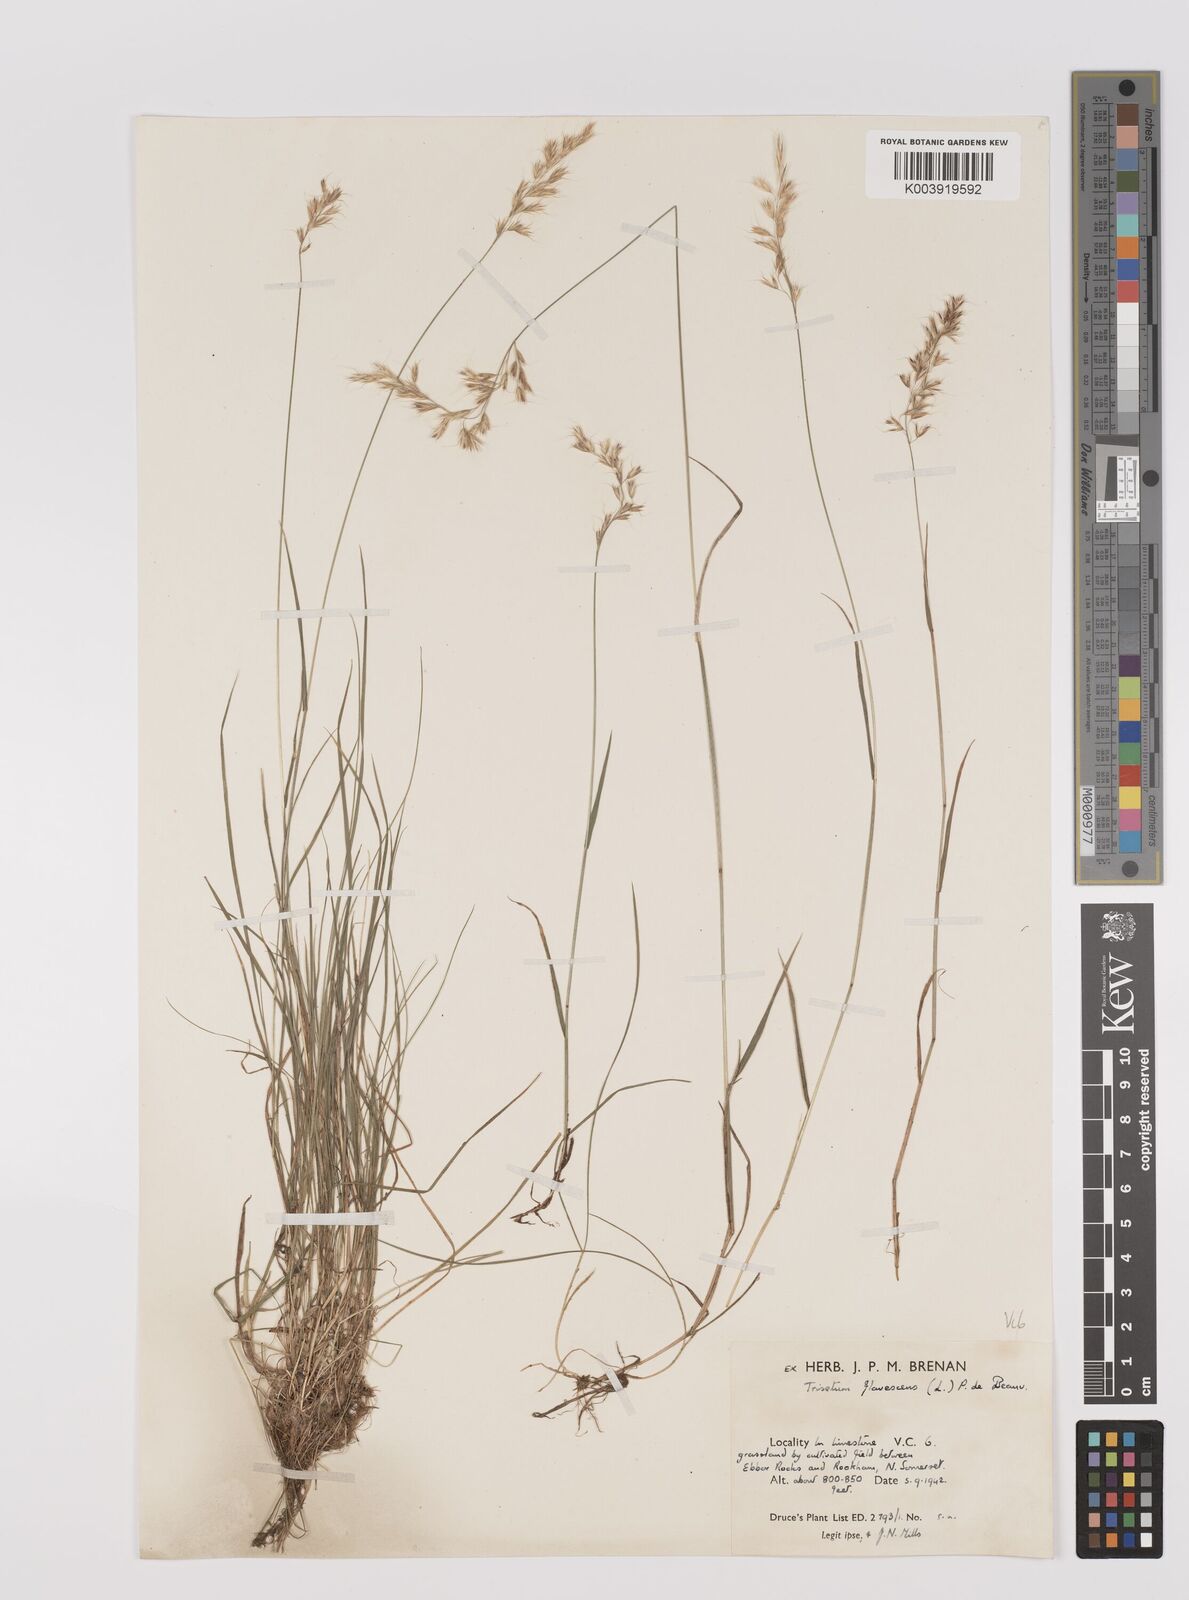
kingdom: Plantae
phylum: Tracheophyta
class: Liliopsida
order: Poales
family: Poaceae
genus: Trisetum
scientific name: Trisetum flavescens
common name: Yellow oat-grass
